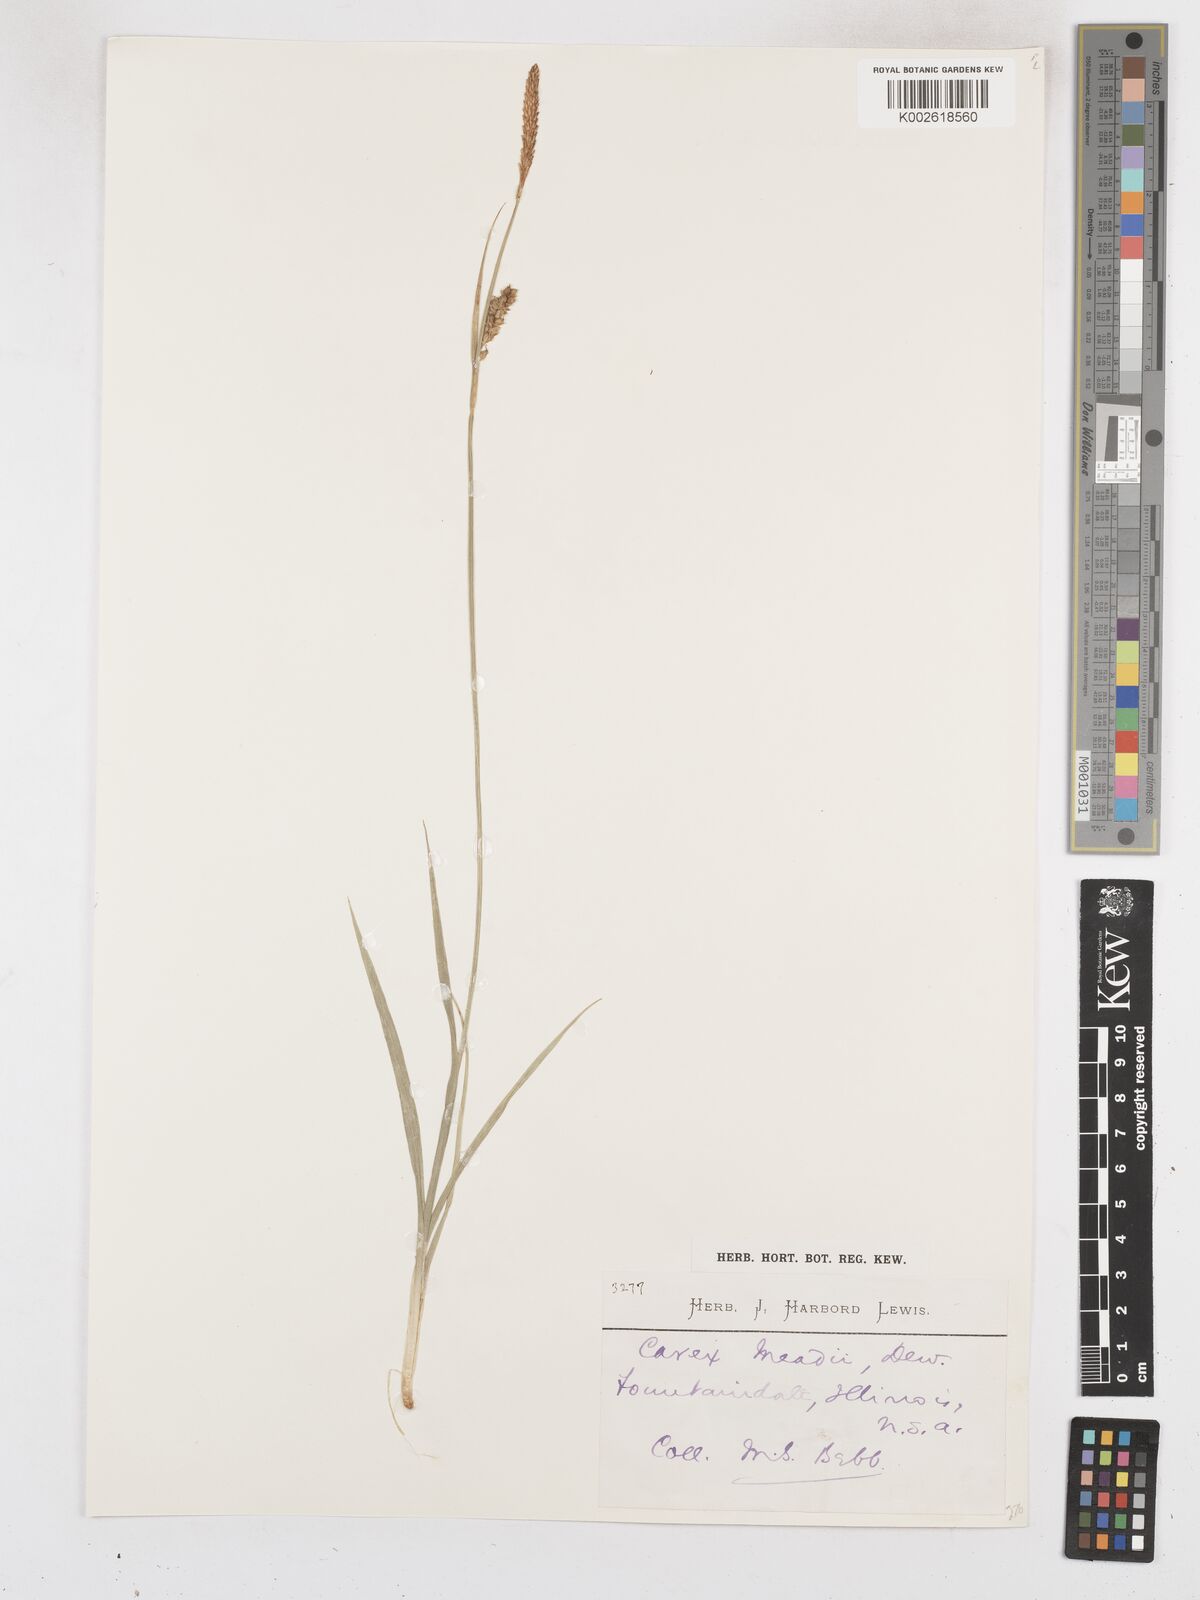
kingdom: Plantae
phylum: Tracheophyta
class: Liliopsida
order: Poales
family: Cyperaceae
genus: Carex
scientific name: Carex meadii
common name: Mead's sedge
